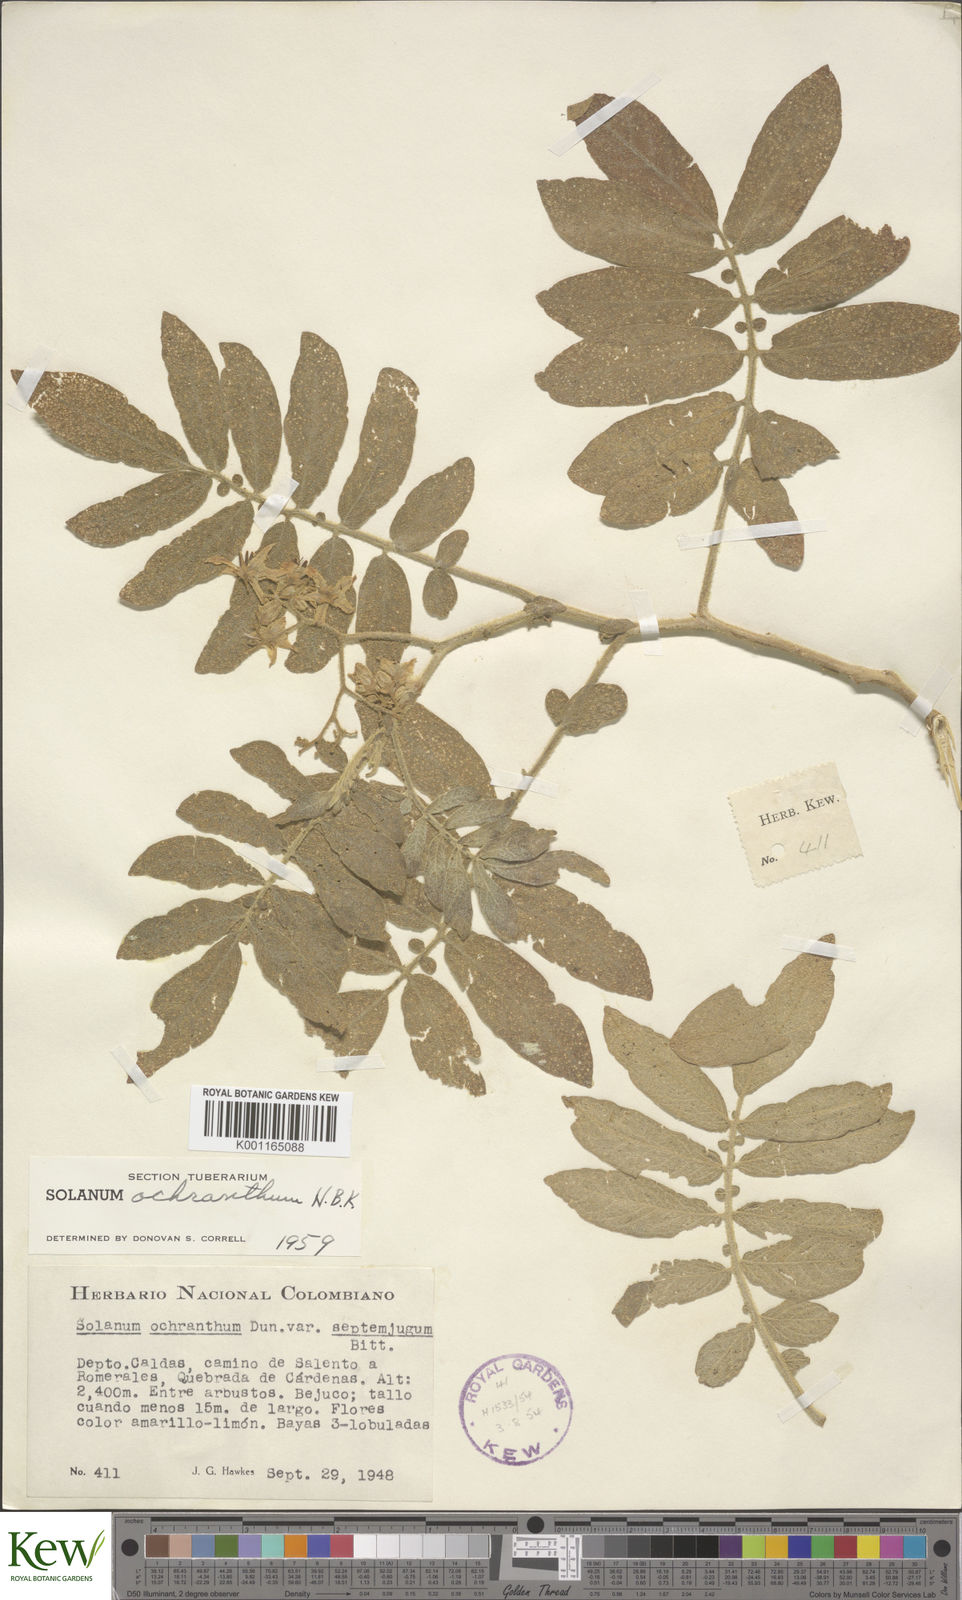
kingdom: Plantae
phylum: Tracheophyta
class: Magnoliopsida
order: Solanales
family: Solanaceae
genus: Solanum
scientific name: Solanum ochranthum
